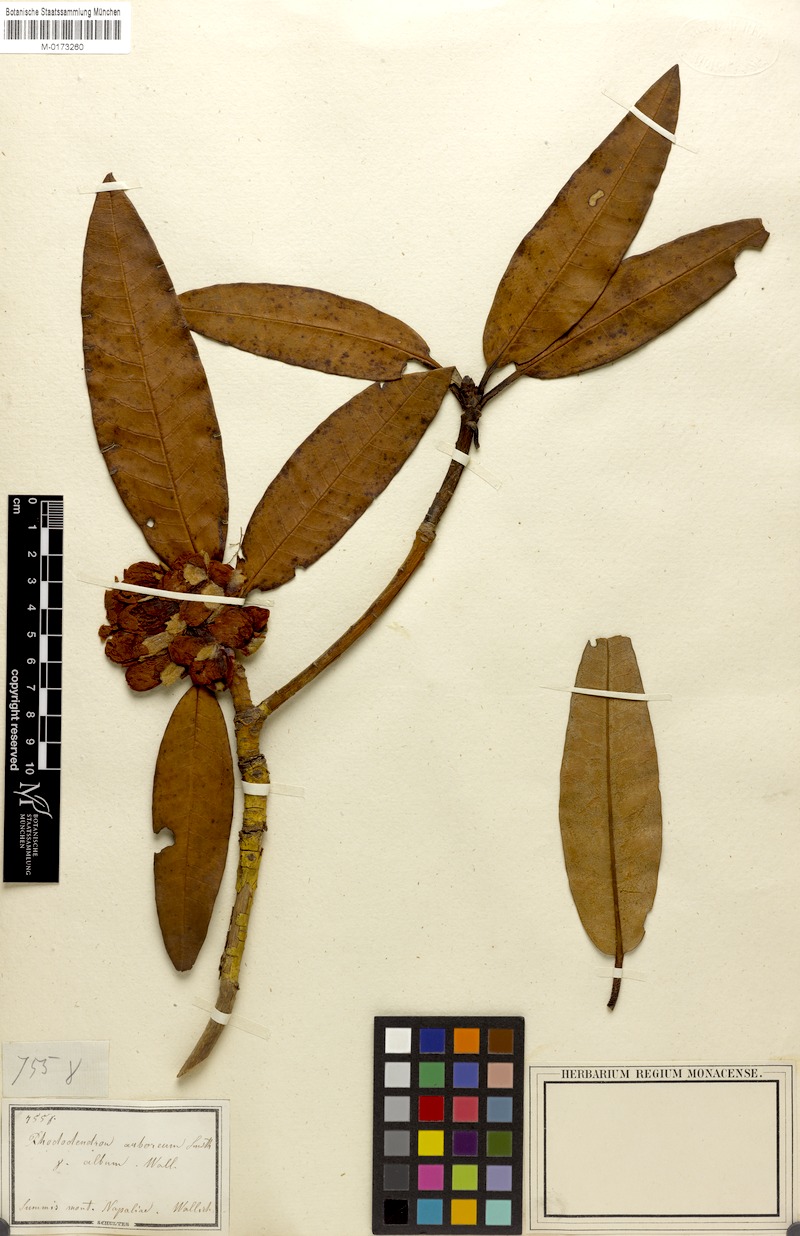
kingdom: Plantae
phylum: Tracheophyta
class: Magnoliopsida
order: Ericales
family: Ericaceae
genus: Rhododendron
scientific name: Rhododendron arboreum
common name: Tree rhododendron
